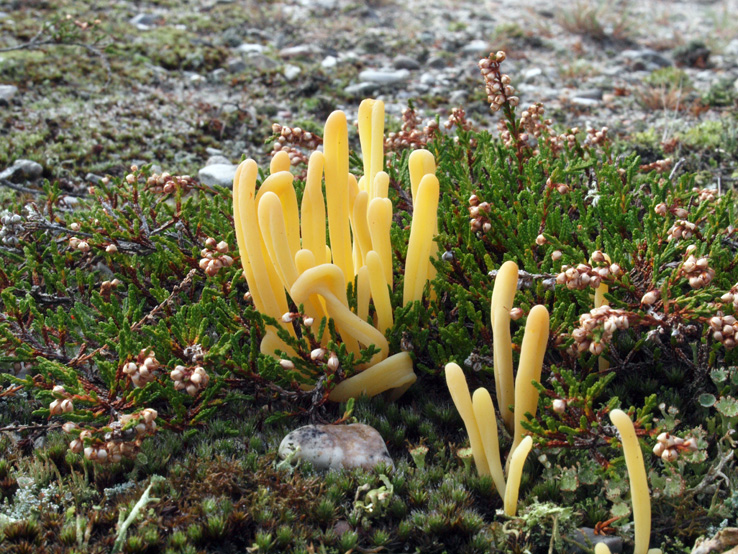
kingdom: Fungi
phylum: Basidiomycota
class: Agaricomycetes
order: Agaricales
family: Clavariaceae
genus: Clavaria
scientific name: Clavaria argillacea
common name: lerfarvet køllesvamp
